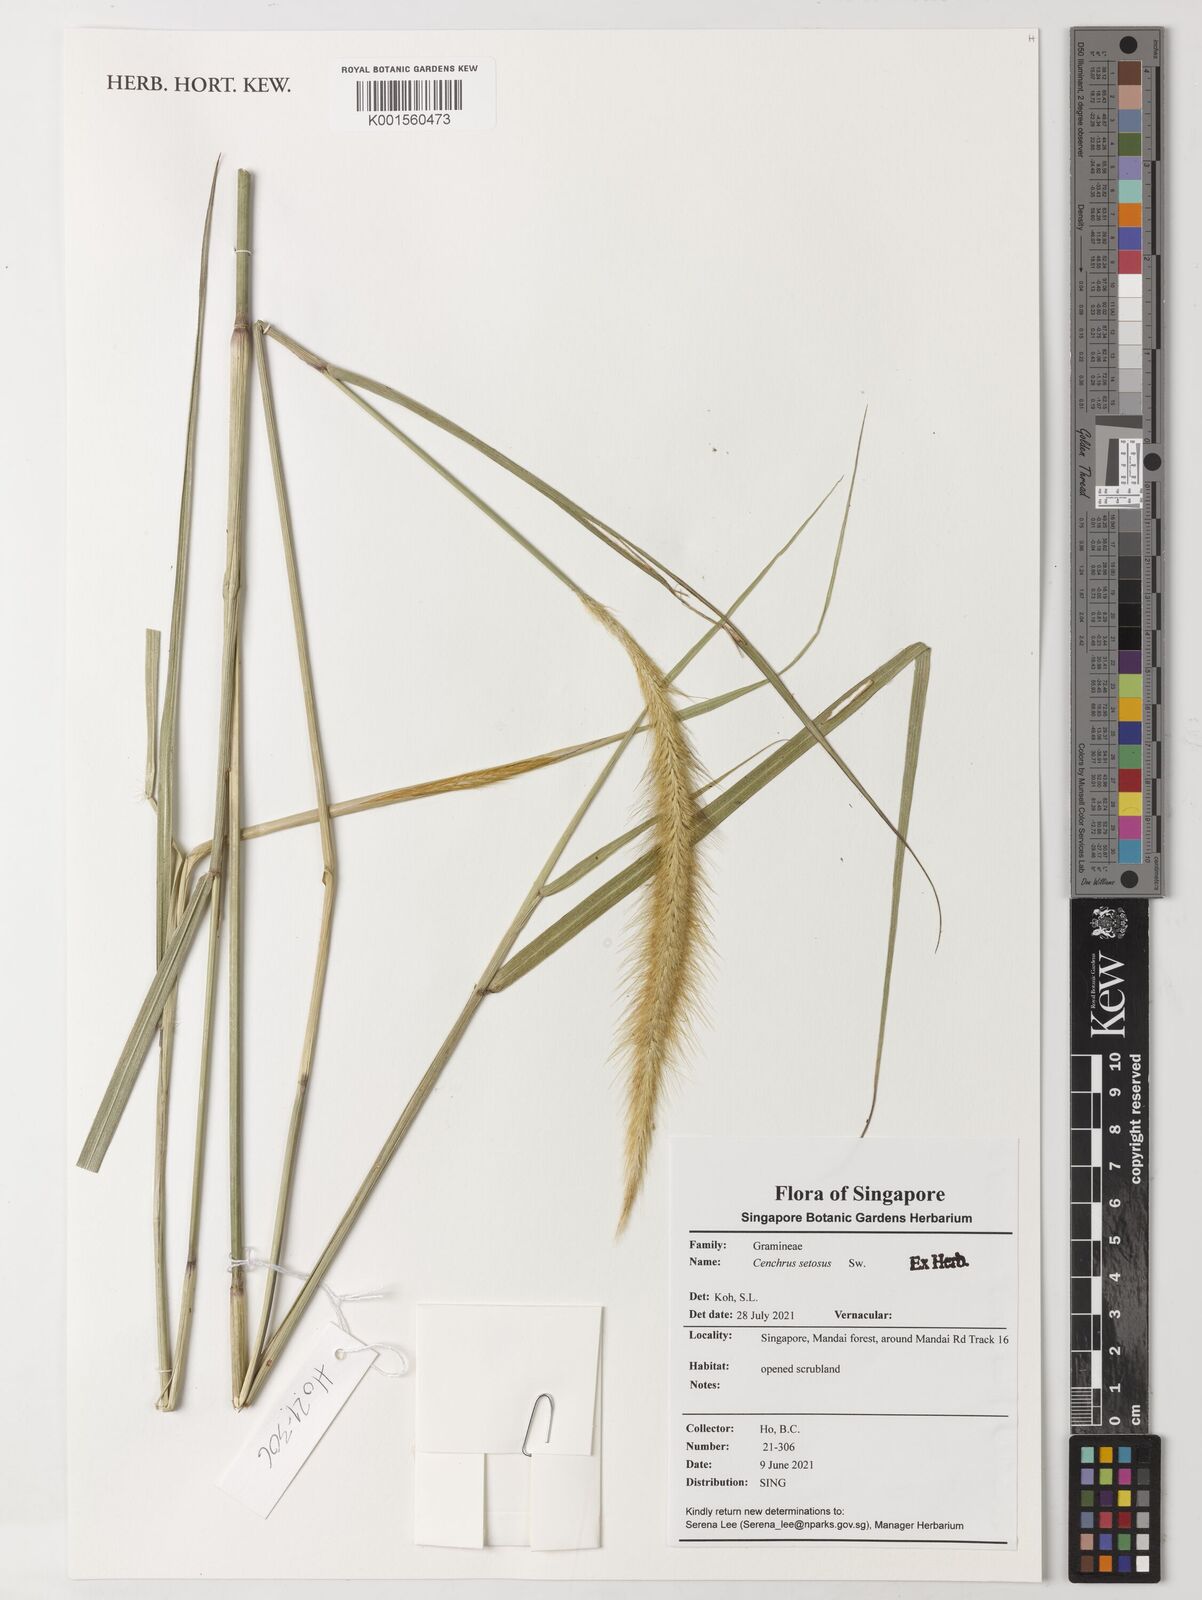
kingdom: Plantae
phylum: Tracheophyta
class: Liliopsida
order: Poales
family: Poaceae
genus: Cenchrus
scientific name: Cenchrus setosus
